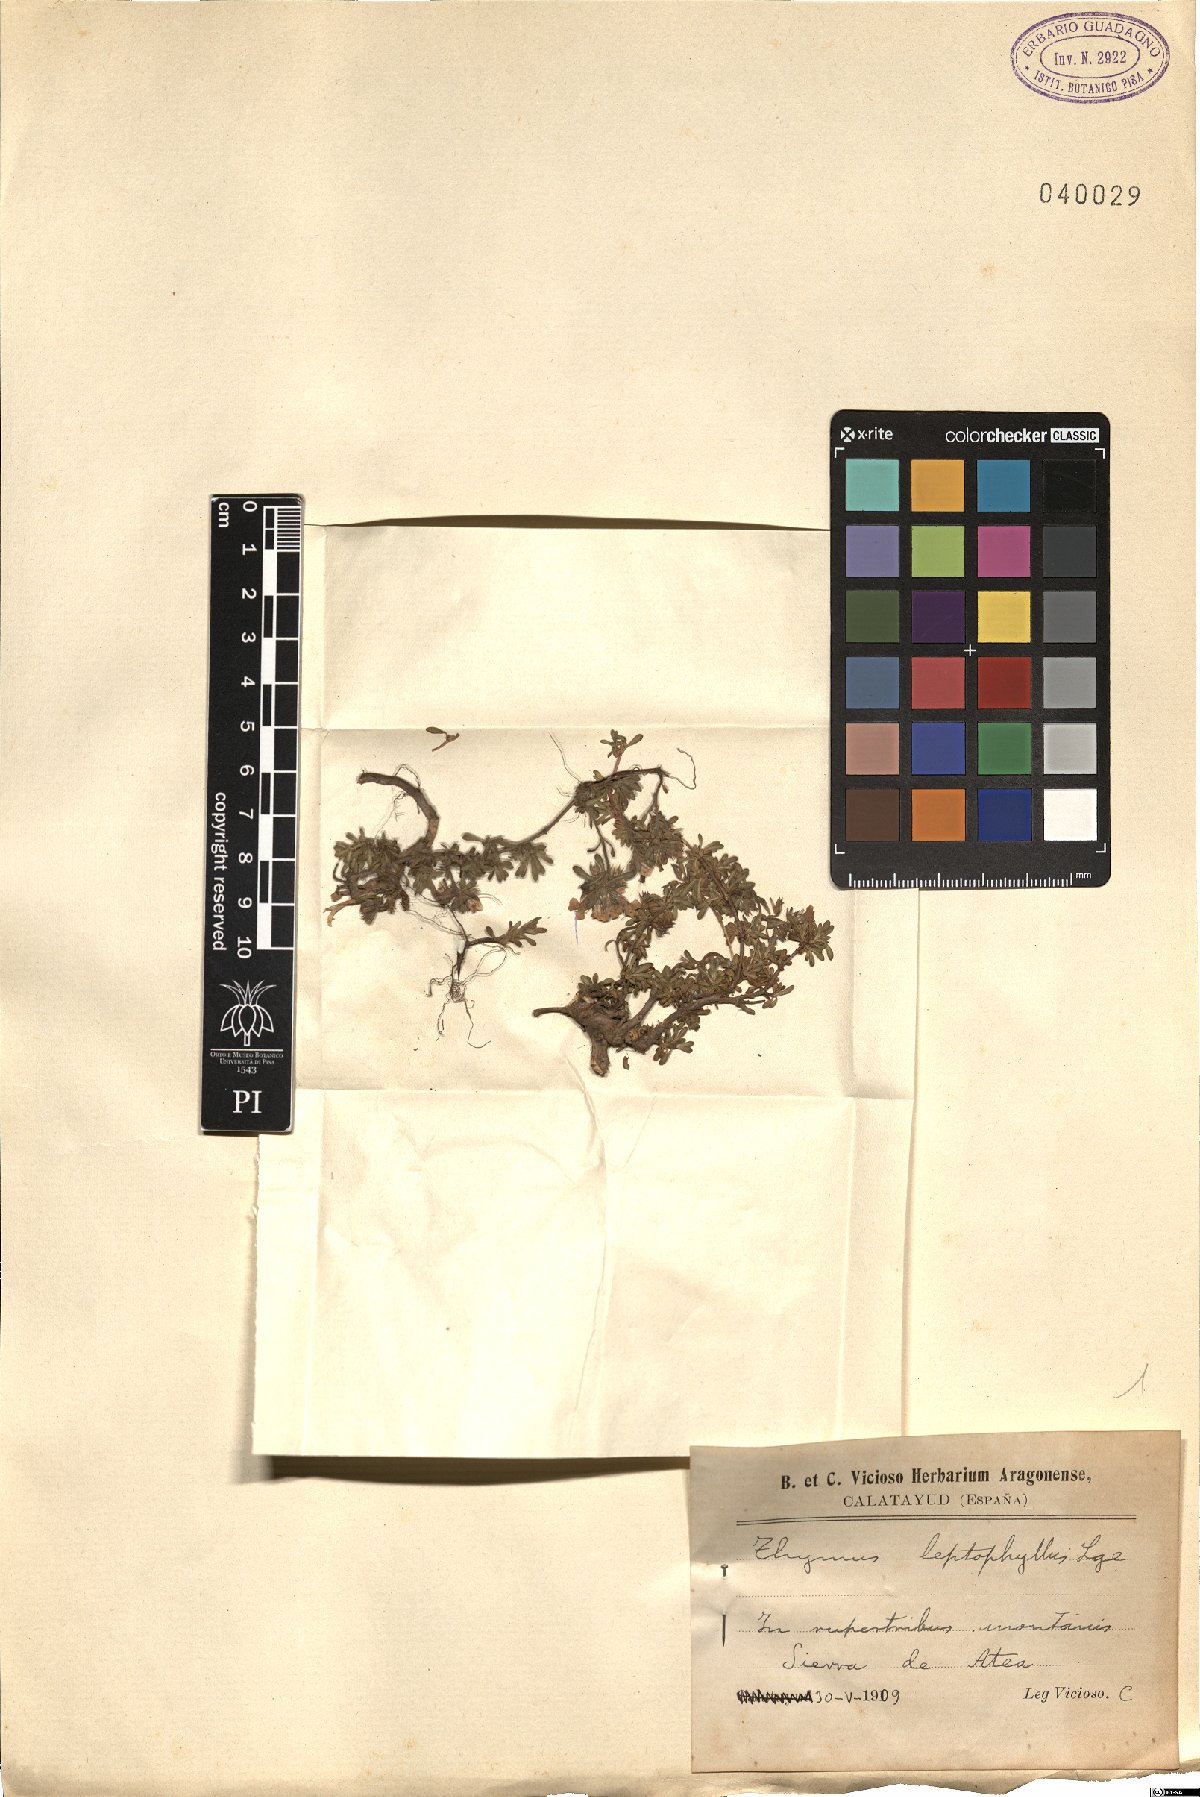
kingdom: Plantae
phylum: Tracheophyta
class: Magnoliopsida
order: Lamiales
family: Lamiaceae
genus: Thymus
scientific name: Thymus leptophyllus
